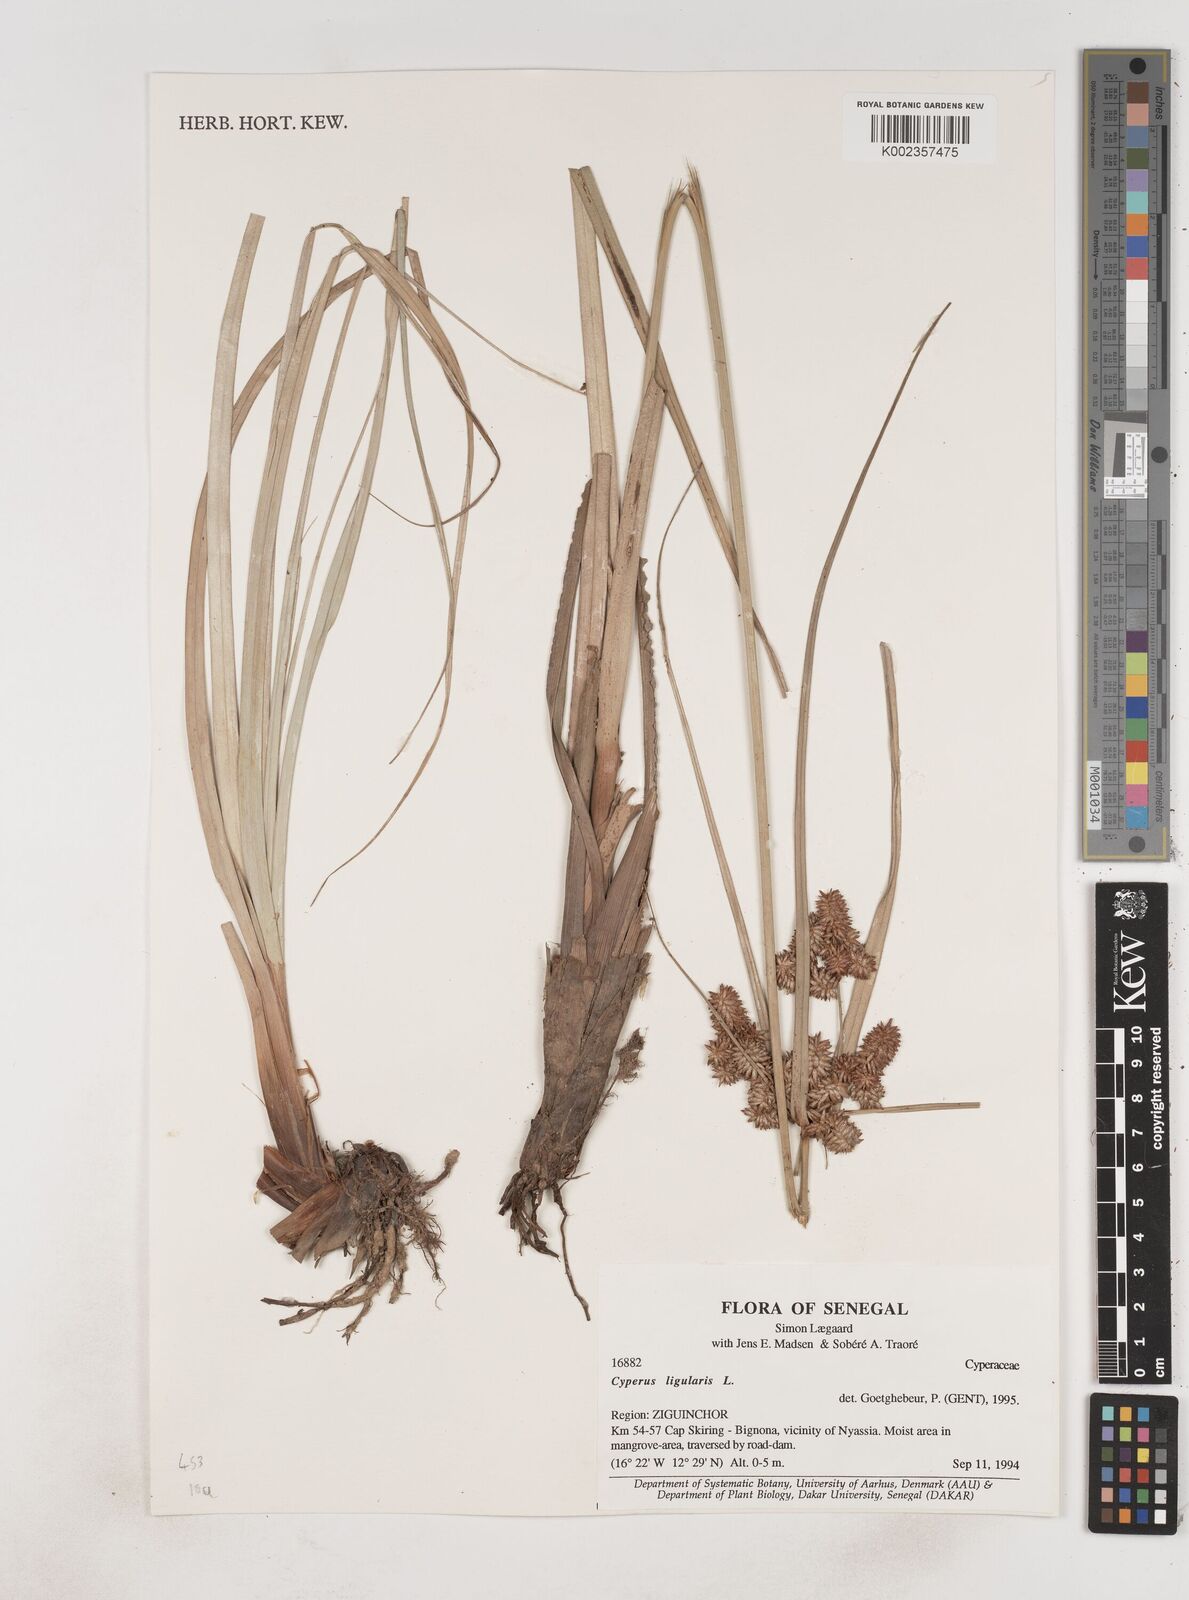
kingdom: Plantae
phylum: Tracheophyta
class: Liliopsida
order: Poales
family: Cyperaceae
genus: Cyperus
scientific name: Cyperus ligularis
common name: Swamp flat sedge
